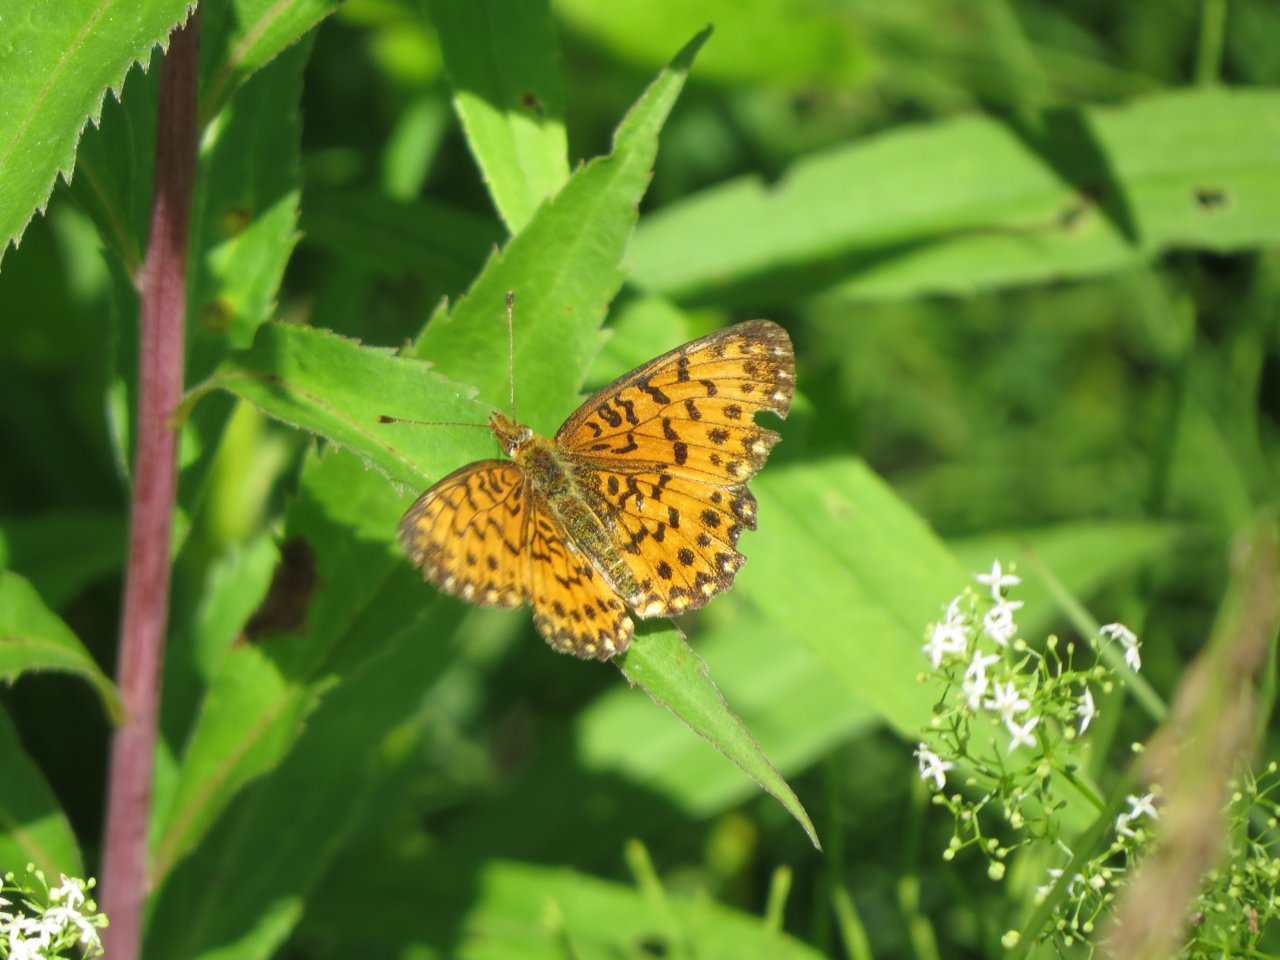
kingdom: Animalia
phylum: Arthropoda
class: Insecta
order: Lepidoptera
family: Nymphalidae
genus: Boloria
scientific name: Boloria selene
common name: Silver-bordered Fritillary
